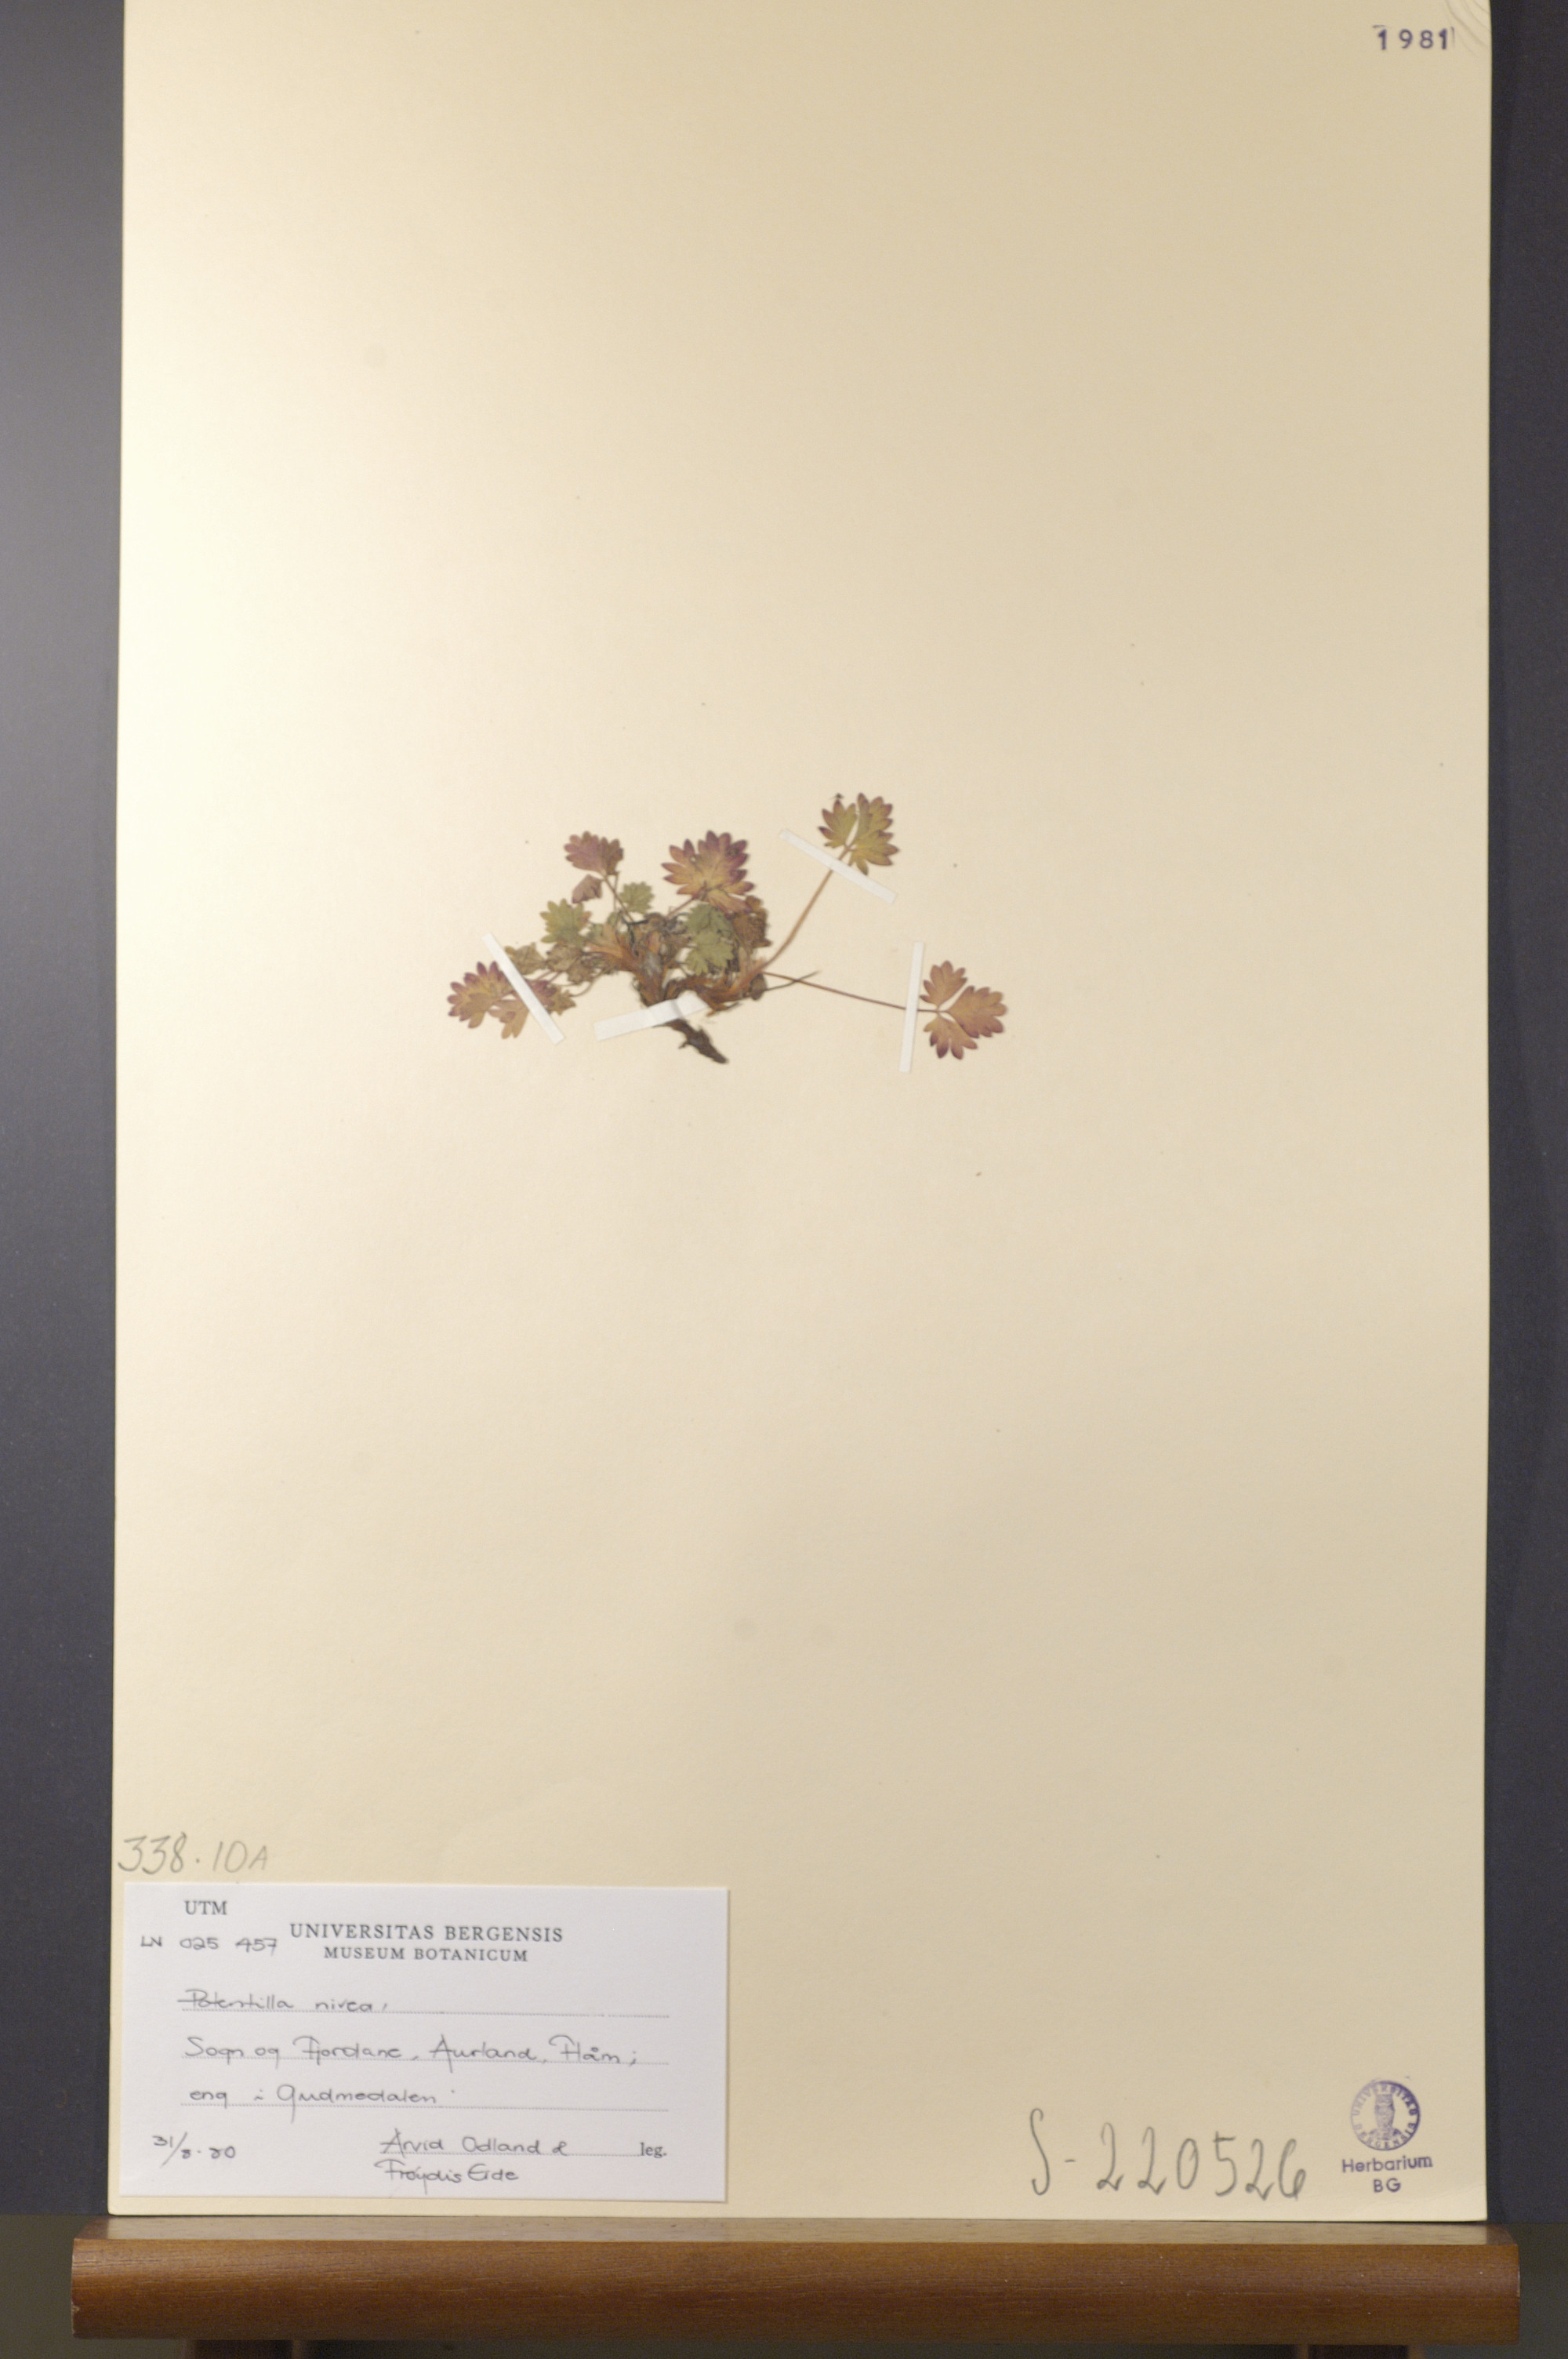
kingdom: Plantae
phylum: Tracheophyta
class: Magnoliopsida
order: Rosales
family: Rosaceae
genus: Potentilla
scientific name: Potentilla arenosa
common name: Bluff cinquefoil
